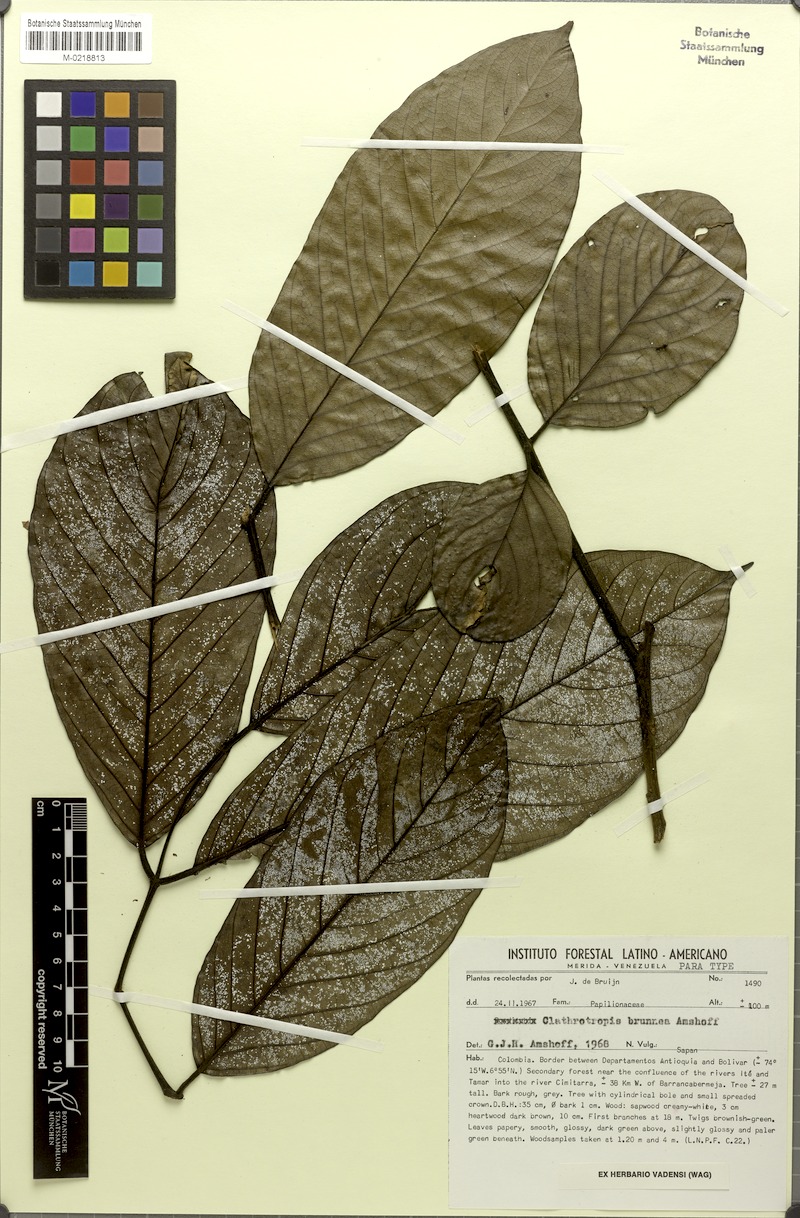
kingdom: Plantae
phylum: Tracheophyta
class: Magnoliopsida
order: Fabales
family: Fabaceae
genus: Clathrotropis
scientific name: Clathrotropis brunnea
